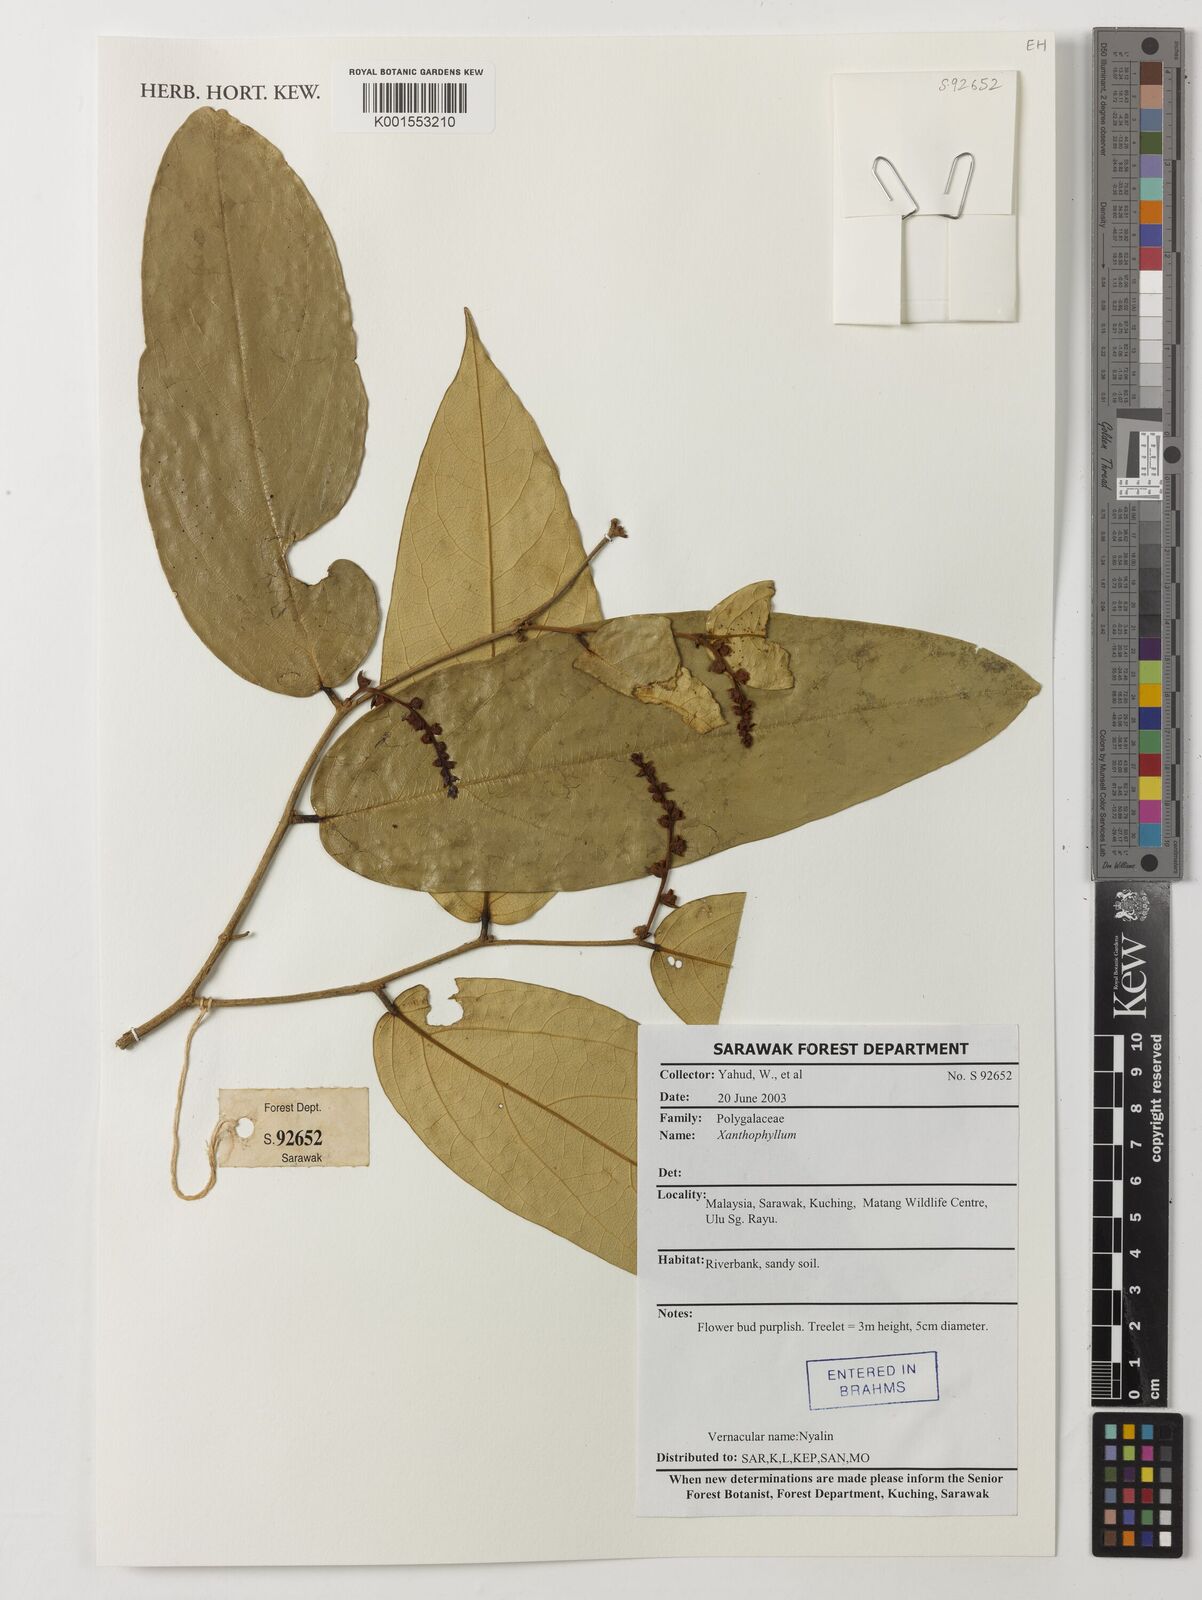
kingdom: Plantae
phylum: Tracheophyta
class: Magnoliopsida
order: Fabales
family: Polygalaceae
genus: Xanthophyllum
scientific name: Xanthophyllum
